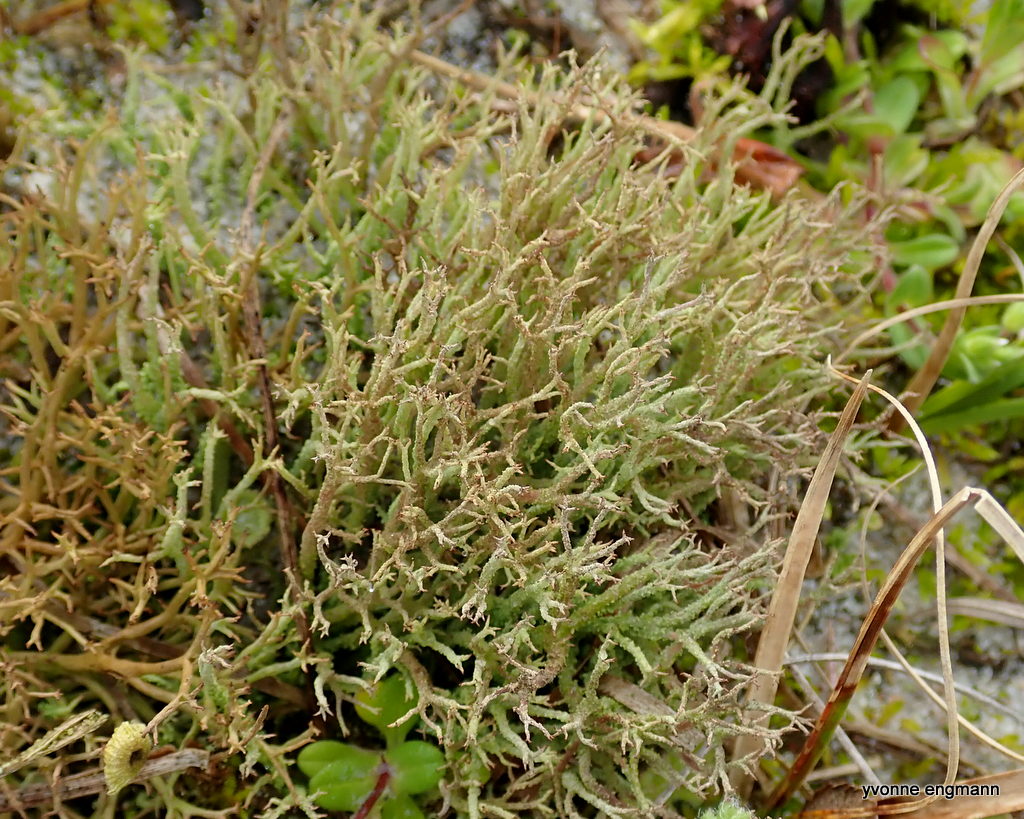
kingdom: Fungi
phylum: Ascomycota
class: Lecanoromycetes
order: Lecanorales
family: Cladoniaceae
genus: Cladonia
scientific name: Cladonia scabriuscula
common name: ru bægerlav
